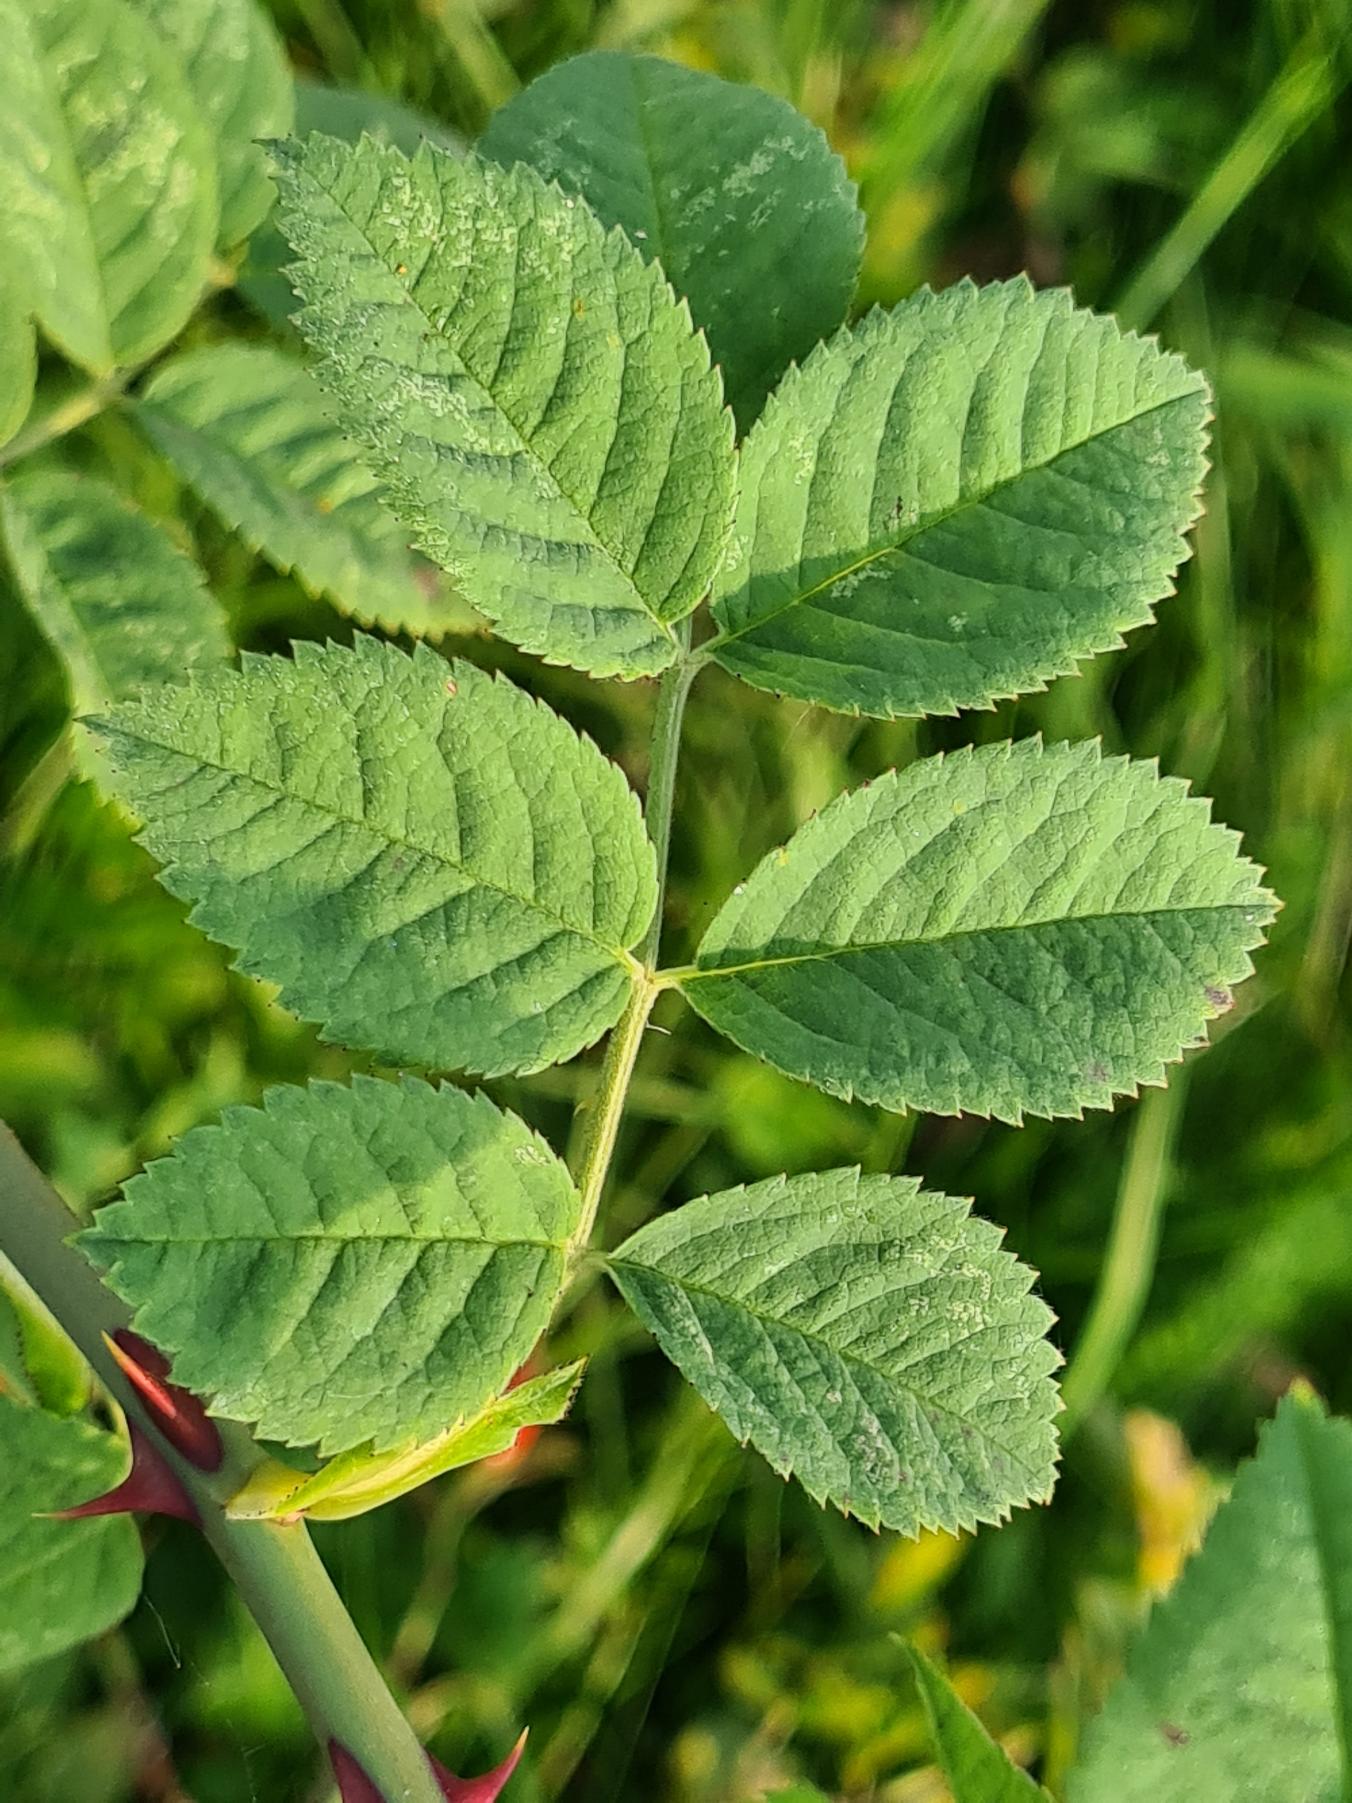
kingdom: Plantae
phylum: Tracheophyta
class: Magnoliopsida
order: Rosales
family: Rosaceae
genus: Rosa
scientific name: Rosa caesia
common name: Håret blågrøn rose
